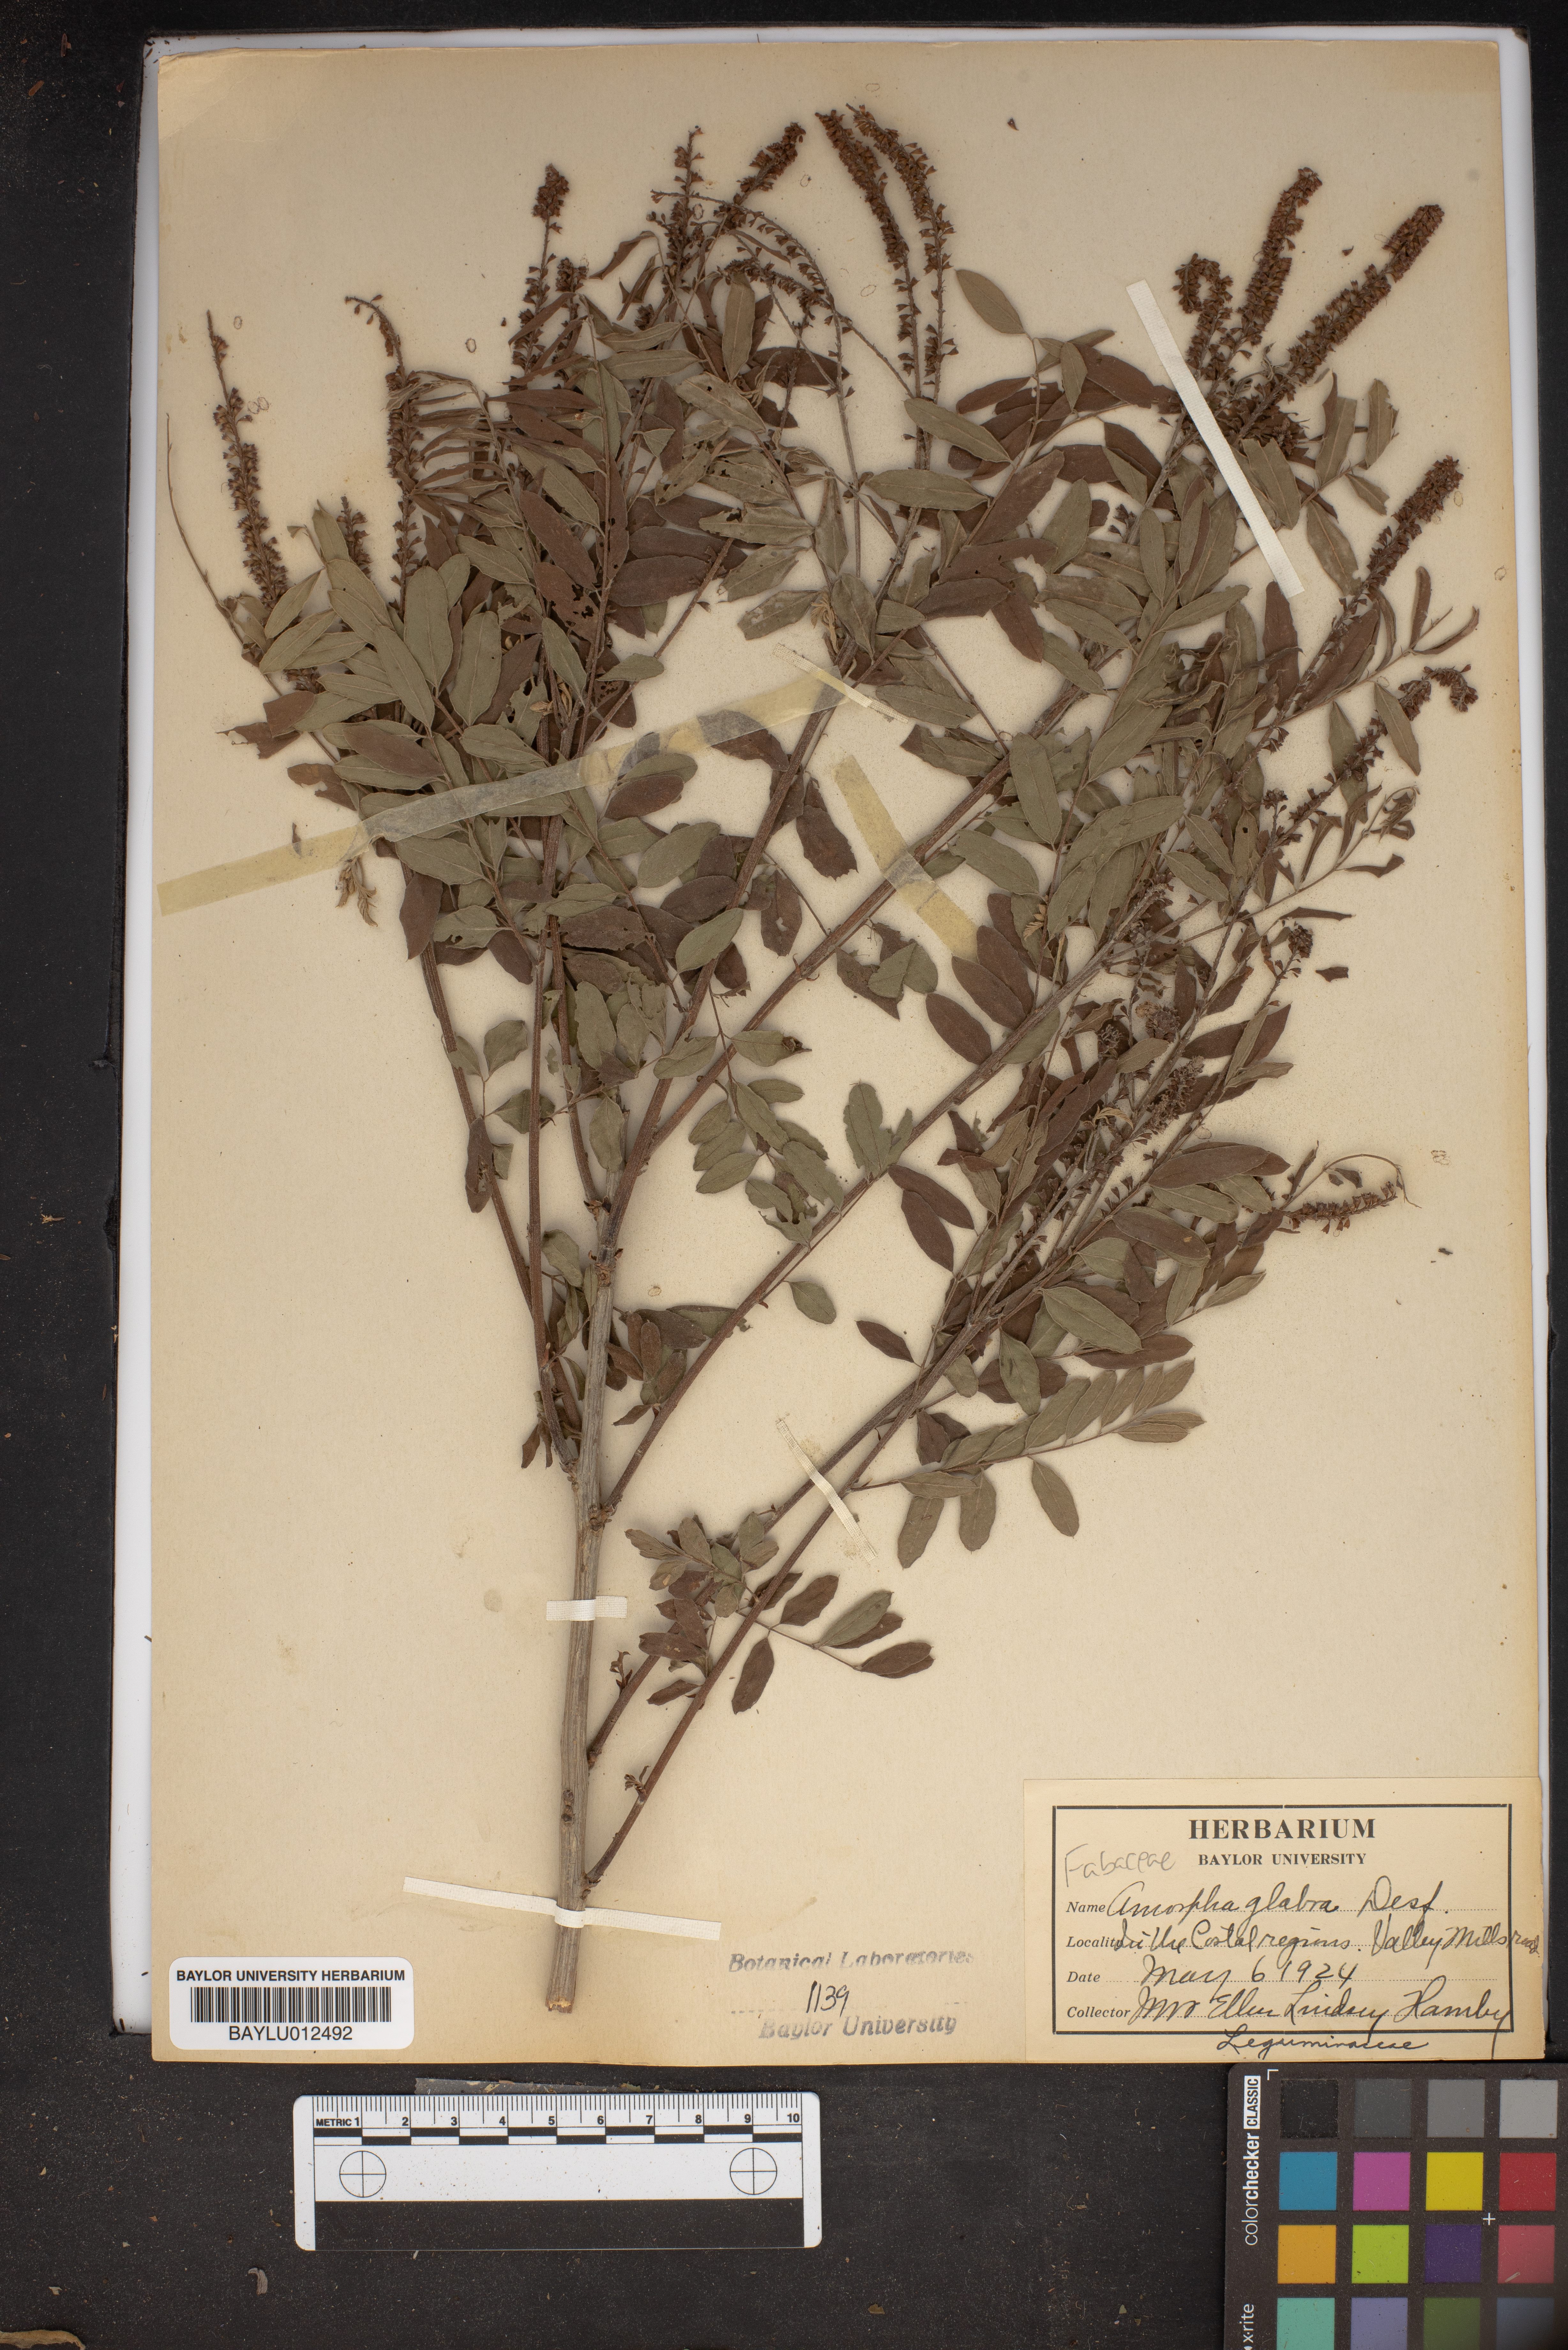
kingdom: Plantae
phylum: Tracheophyta
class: Magnoliopsida
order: Fabales
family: Fabaceae
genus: Amorpha
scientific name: Amorpha glabra
